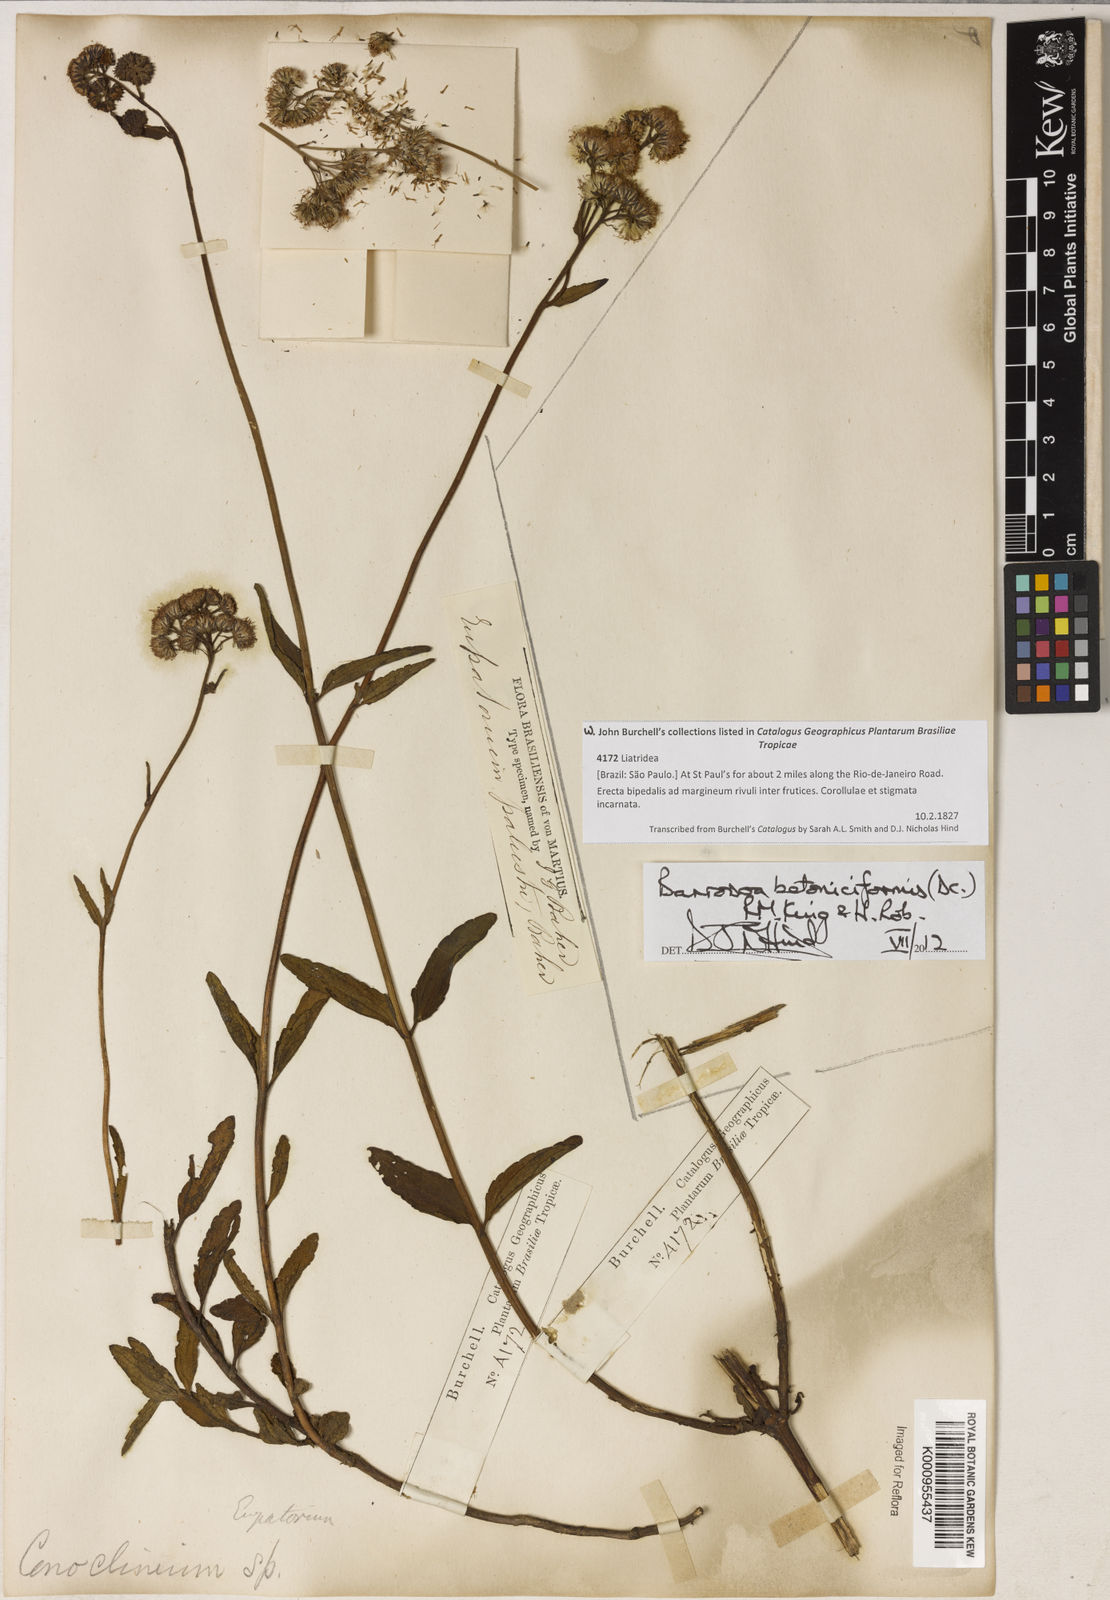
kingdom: Plantae
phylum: Tracheophyta
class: Magnoliopsida
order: Asterales
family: Asteraceae
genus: Barrosoa
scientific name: Barrosoa betoniciformis
